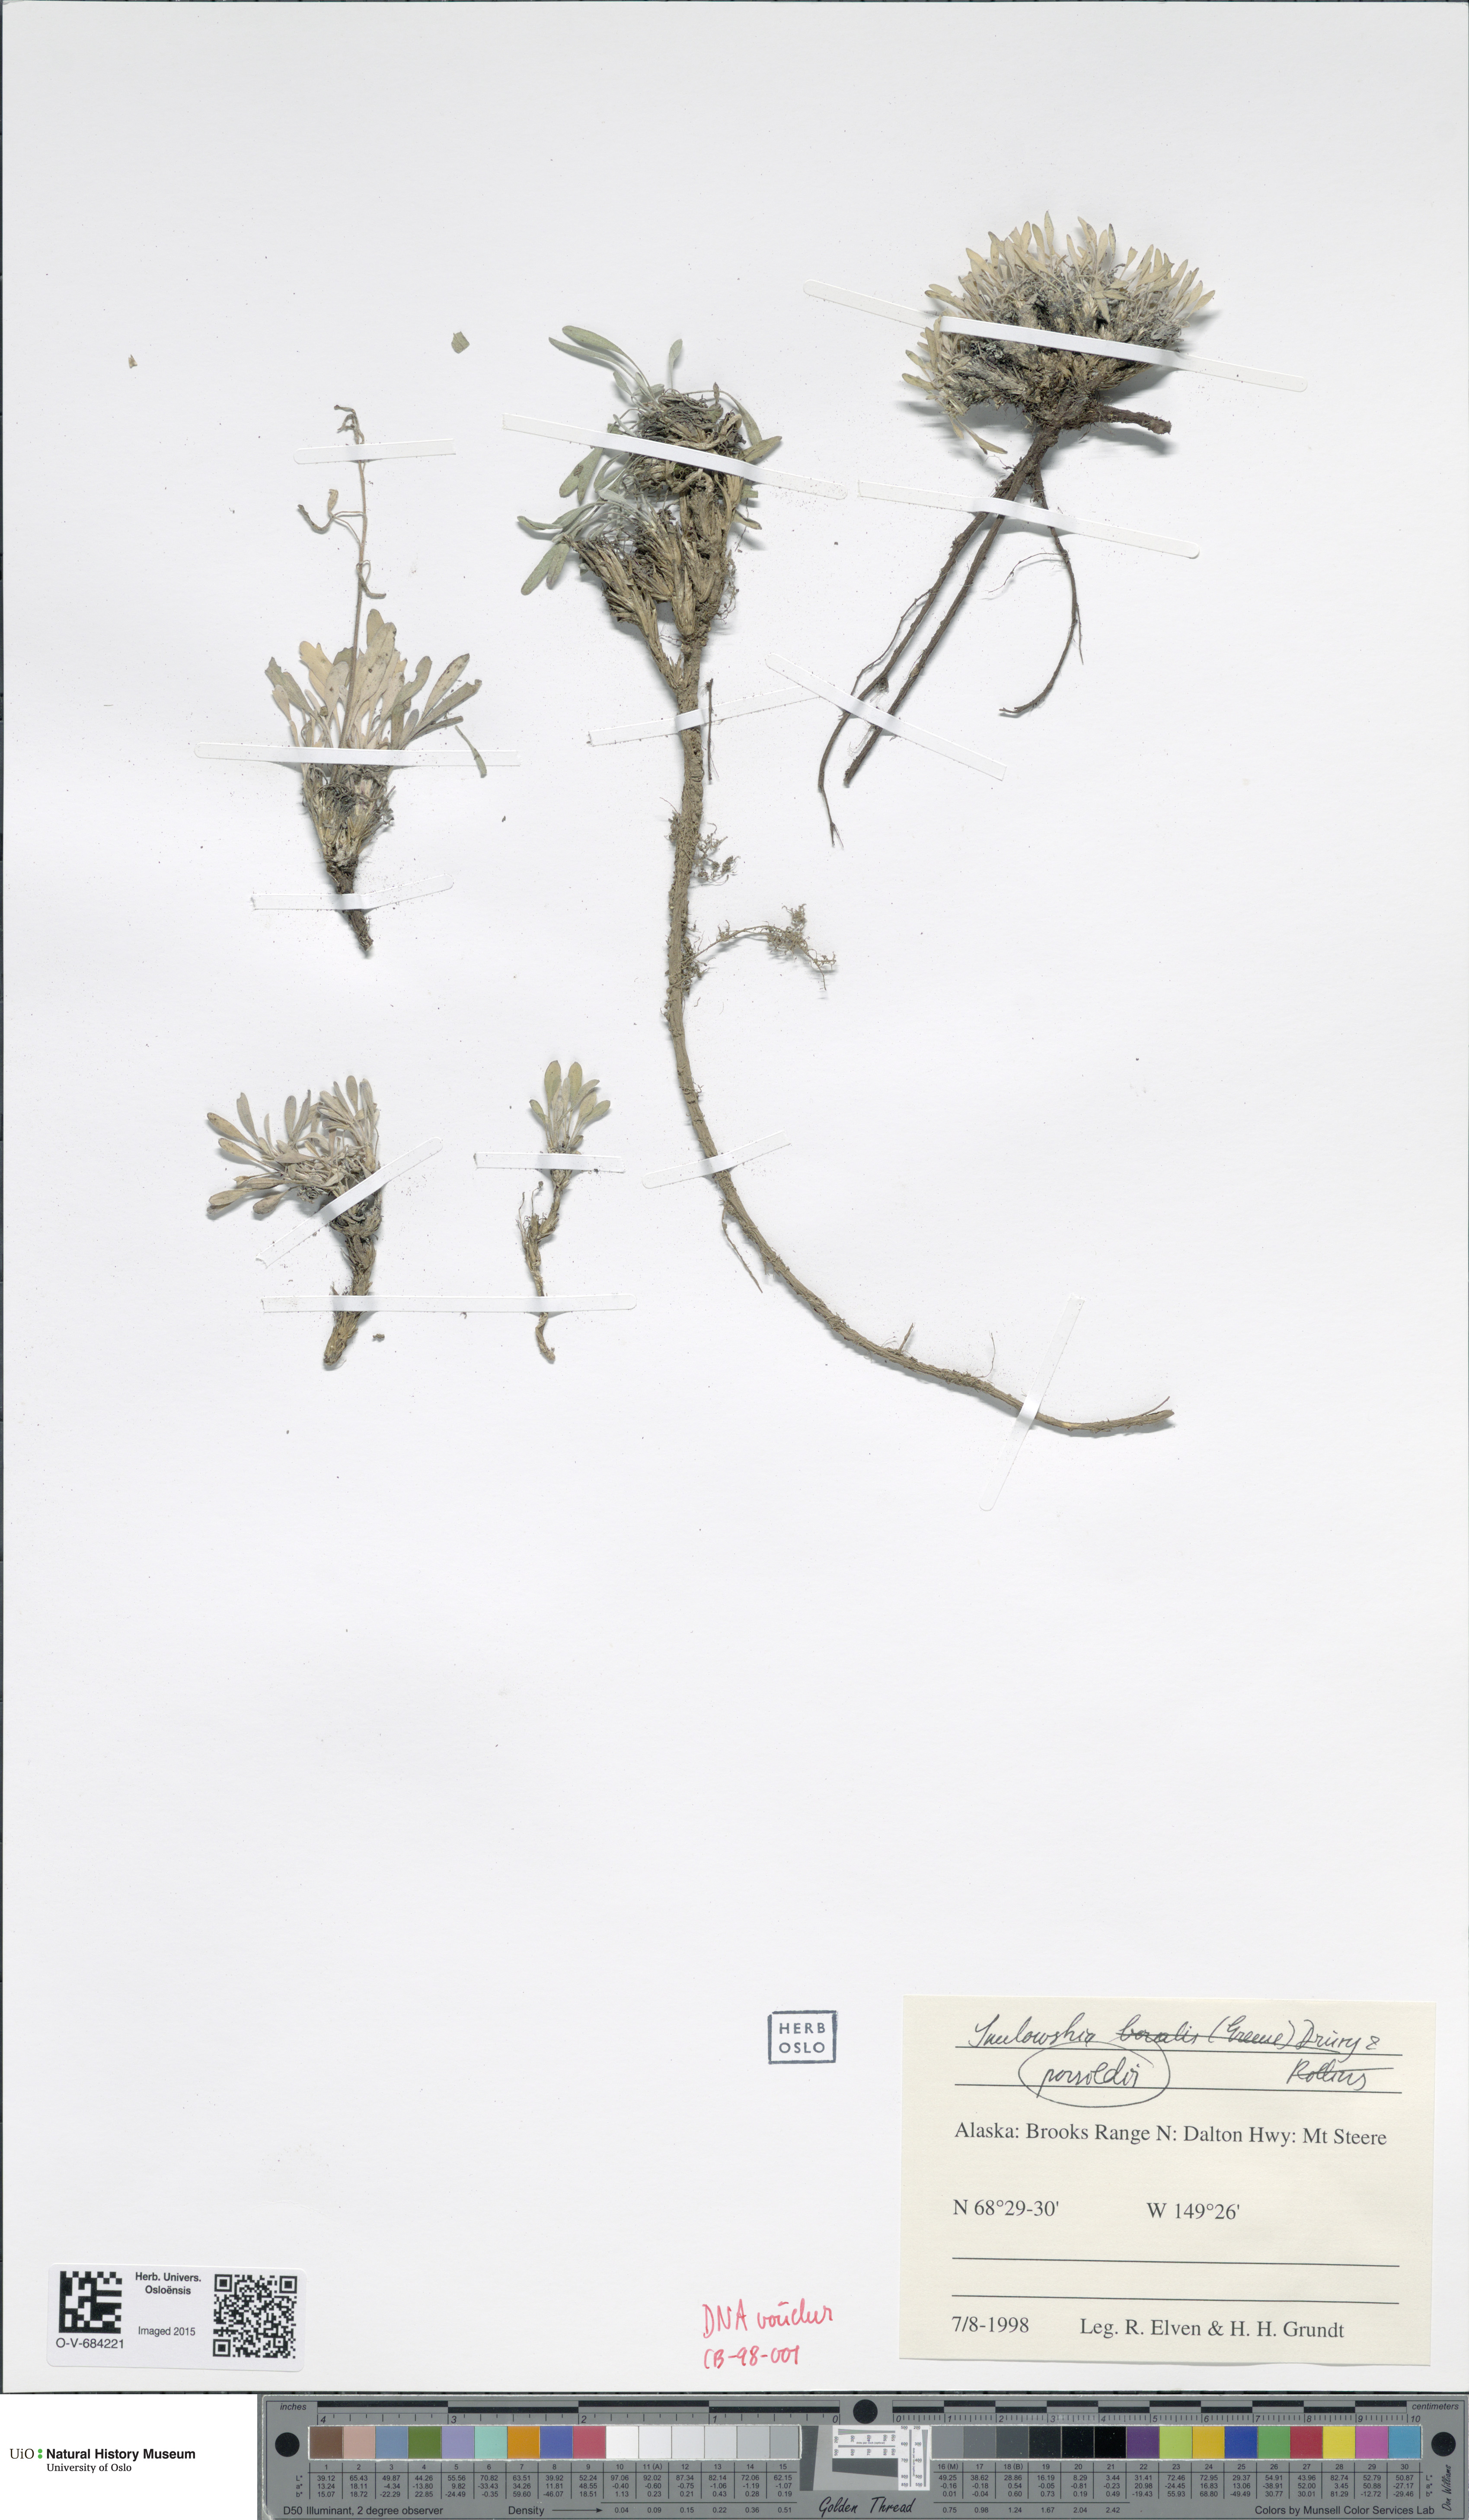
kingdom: Plantae
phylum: Tracheophyta
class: Magnoliopsida
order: Brassicales
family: Brassicaceae
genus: Smelowskia
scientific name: Smelowskia porsildii
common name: Jurtzev's smelowskia
